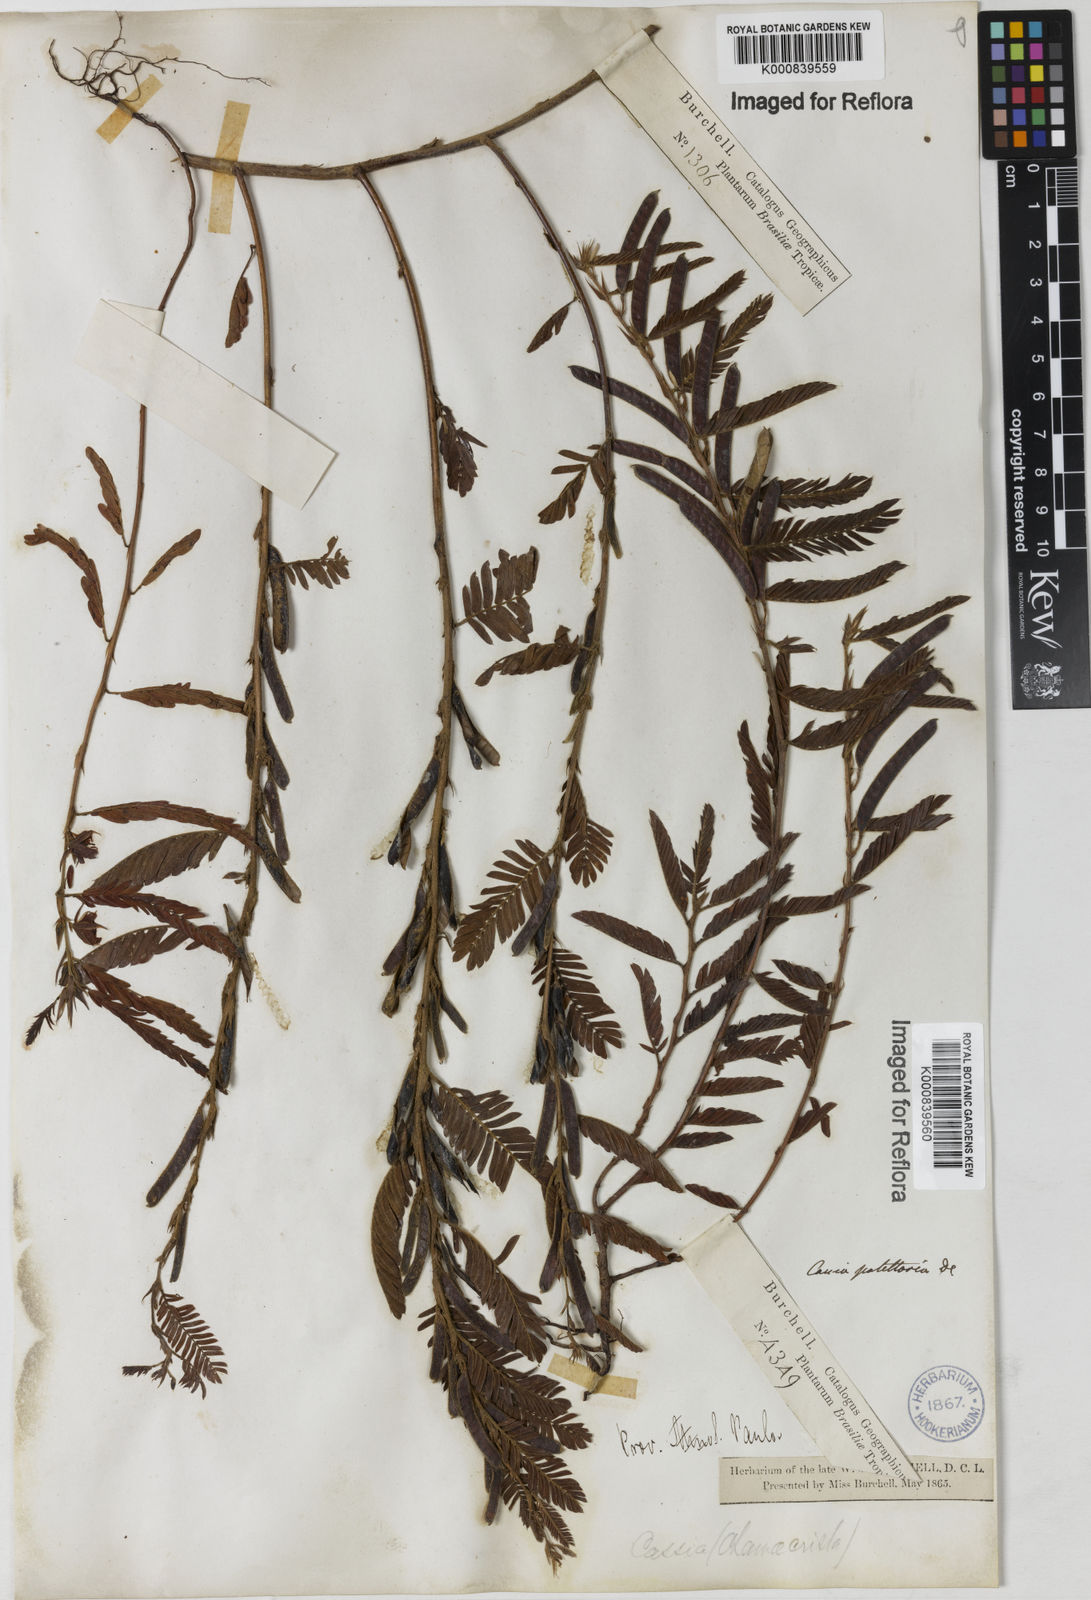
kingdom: Plantae
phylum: Tracheophyta
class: Magnoliopsida
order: Fabales
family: Fabaceae
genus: Chamaecrista
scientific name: Chamaecrista nictitans
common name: Sensitive cassia
